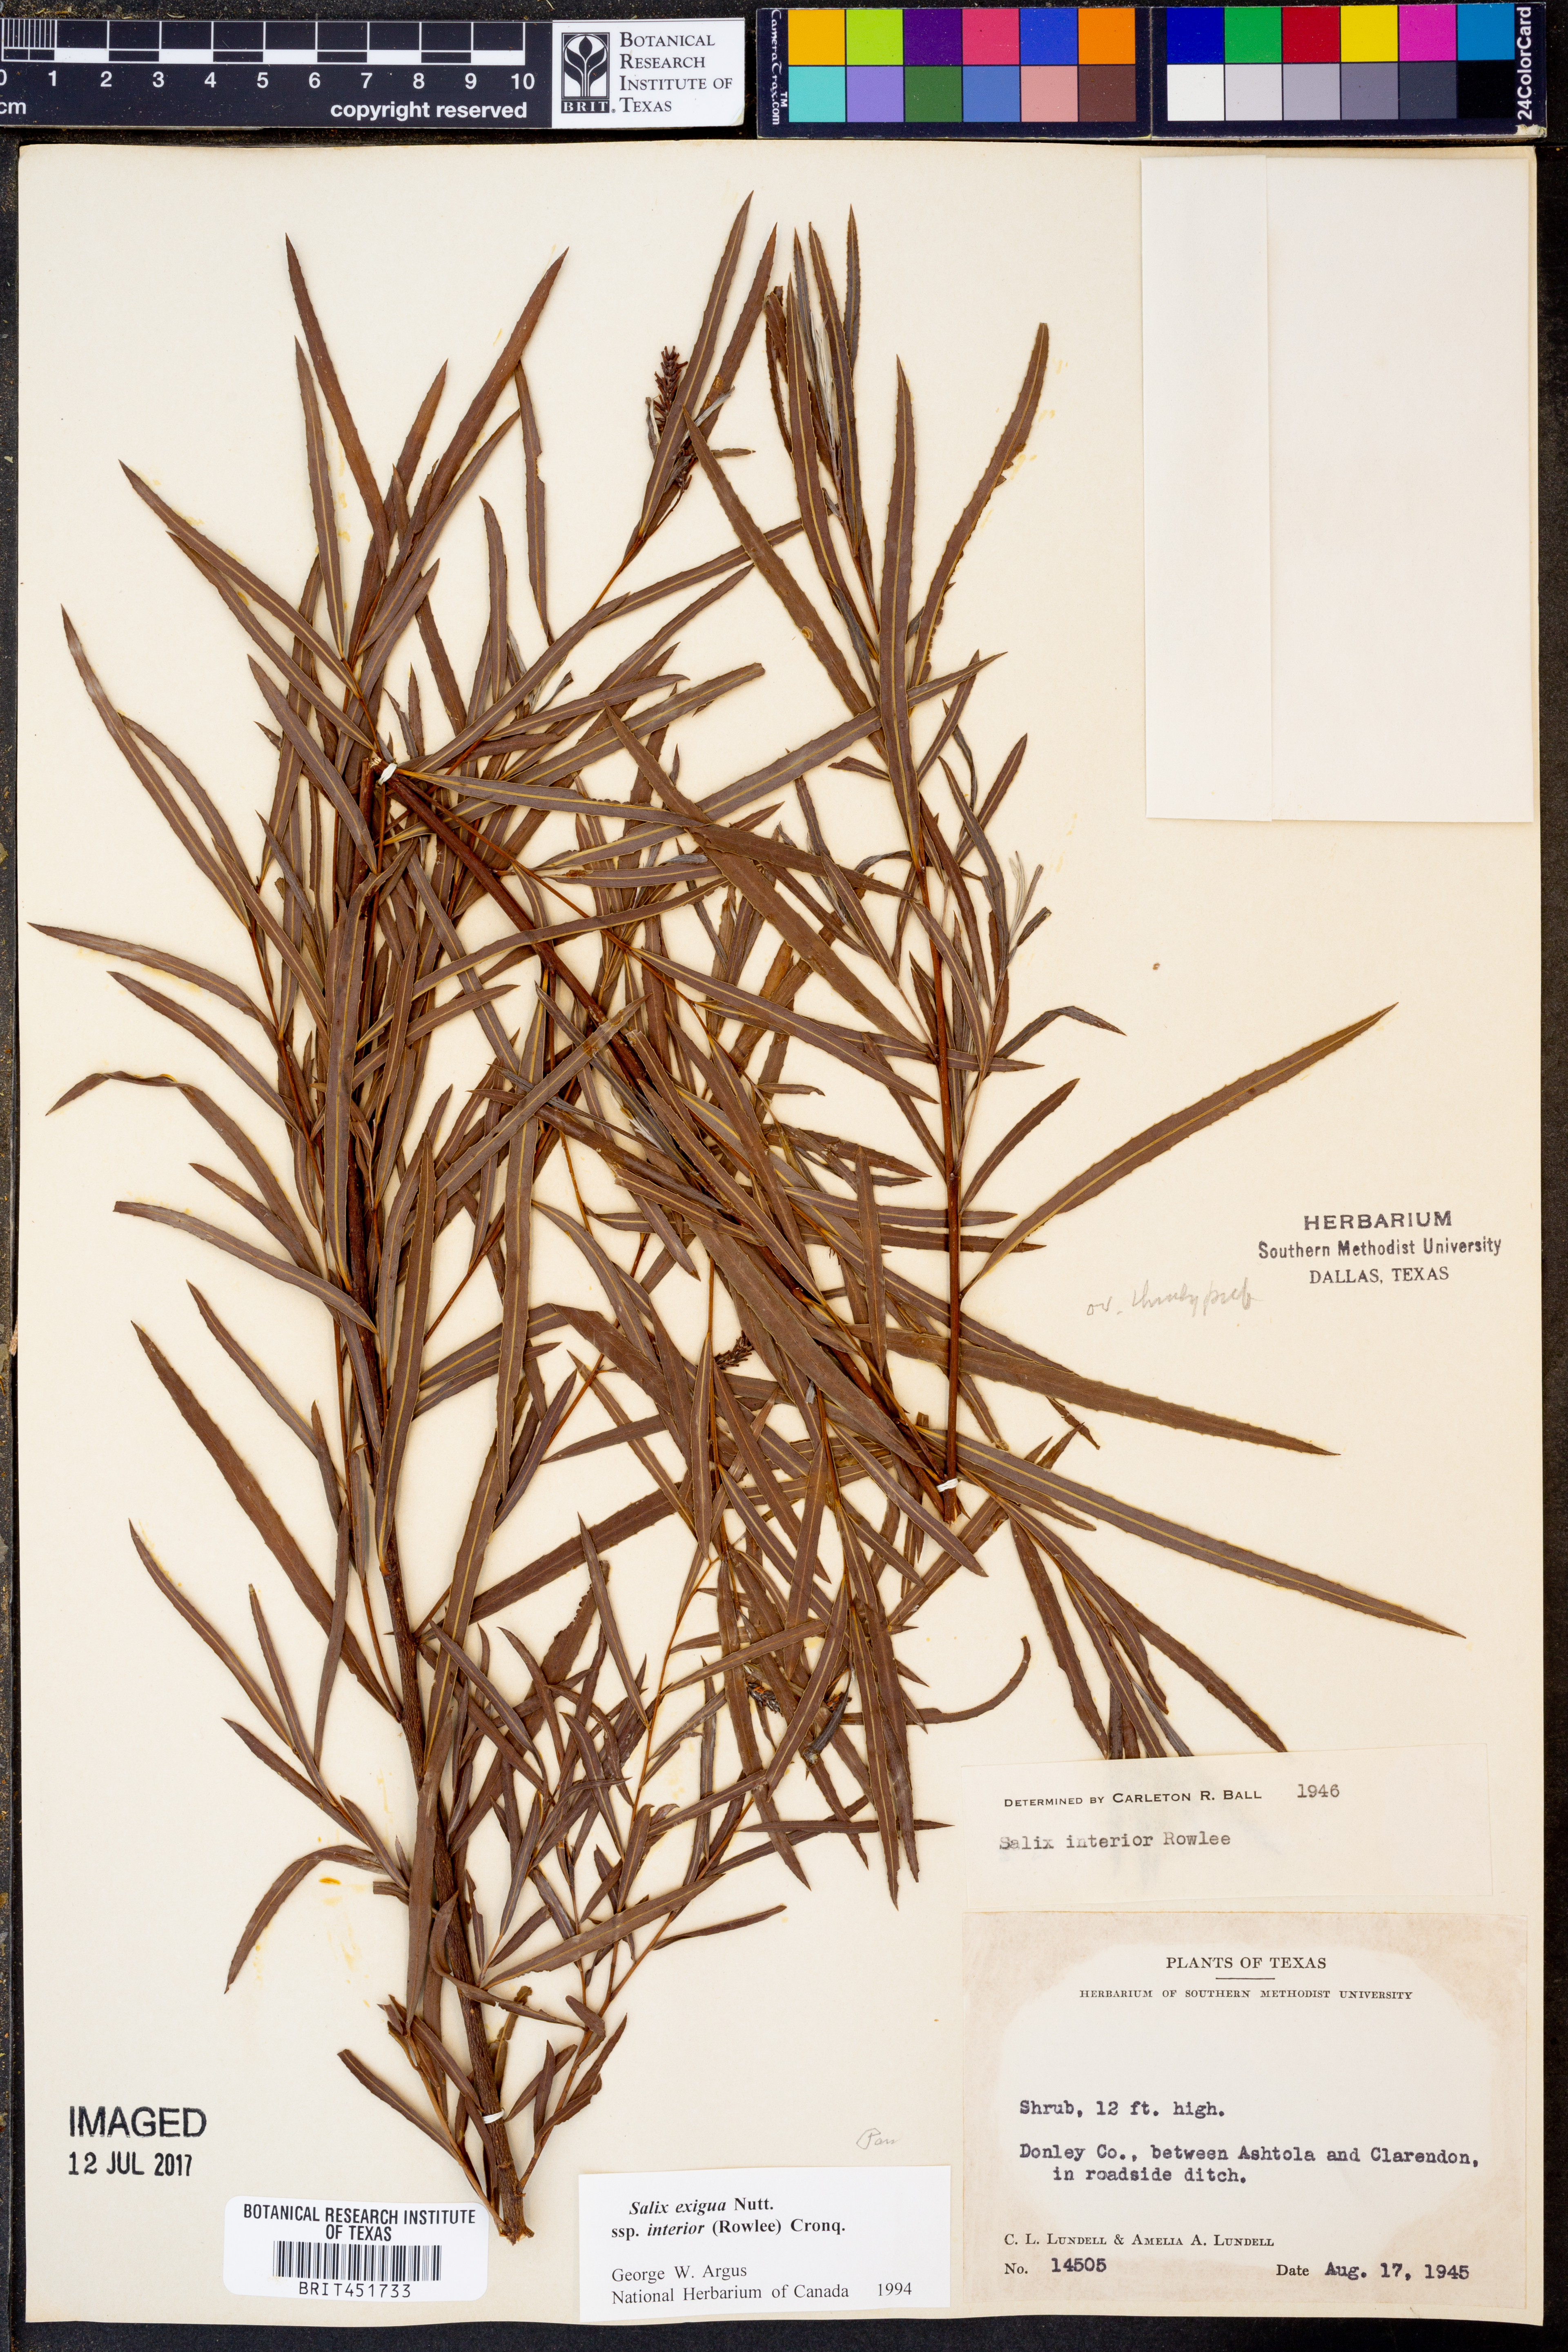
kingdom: Plantae
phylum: Tracheophyta
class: Magnoliopsida
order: Malpighiales
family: Salicaceae
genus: Salix
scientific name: Salix exigua
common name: Coyote willow
